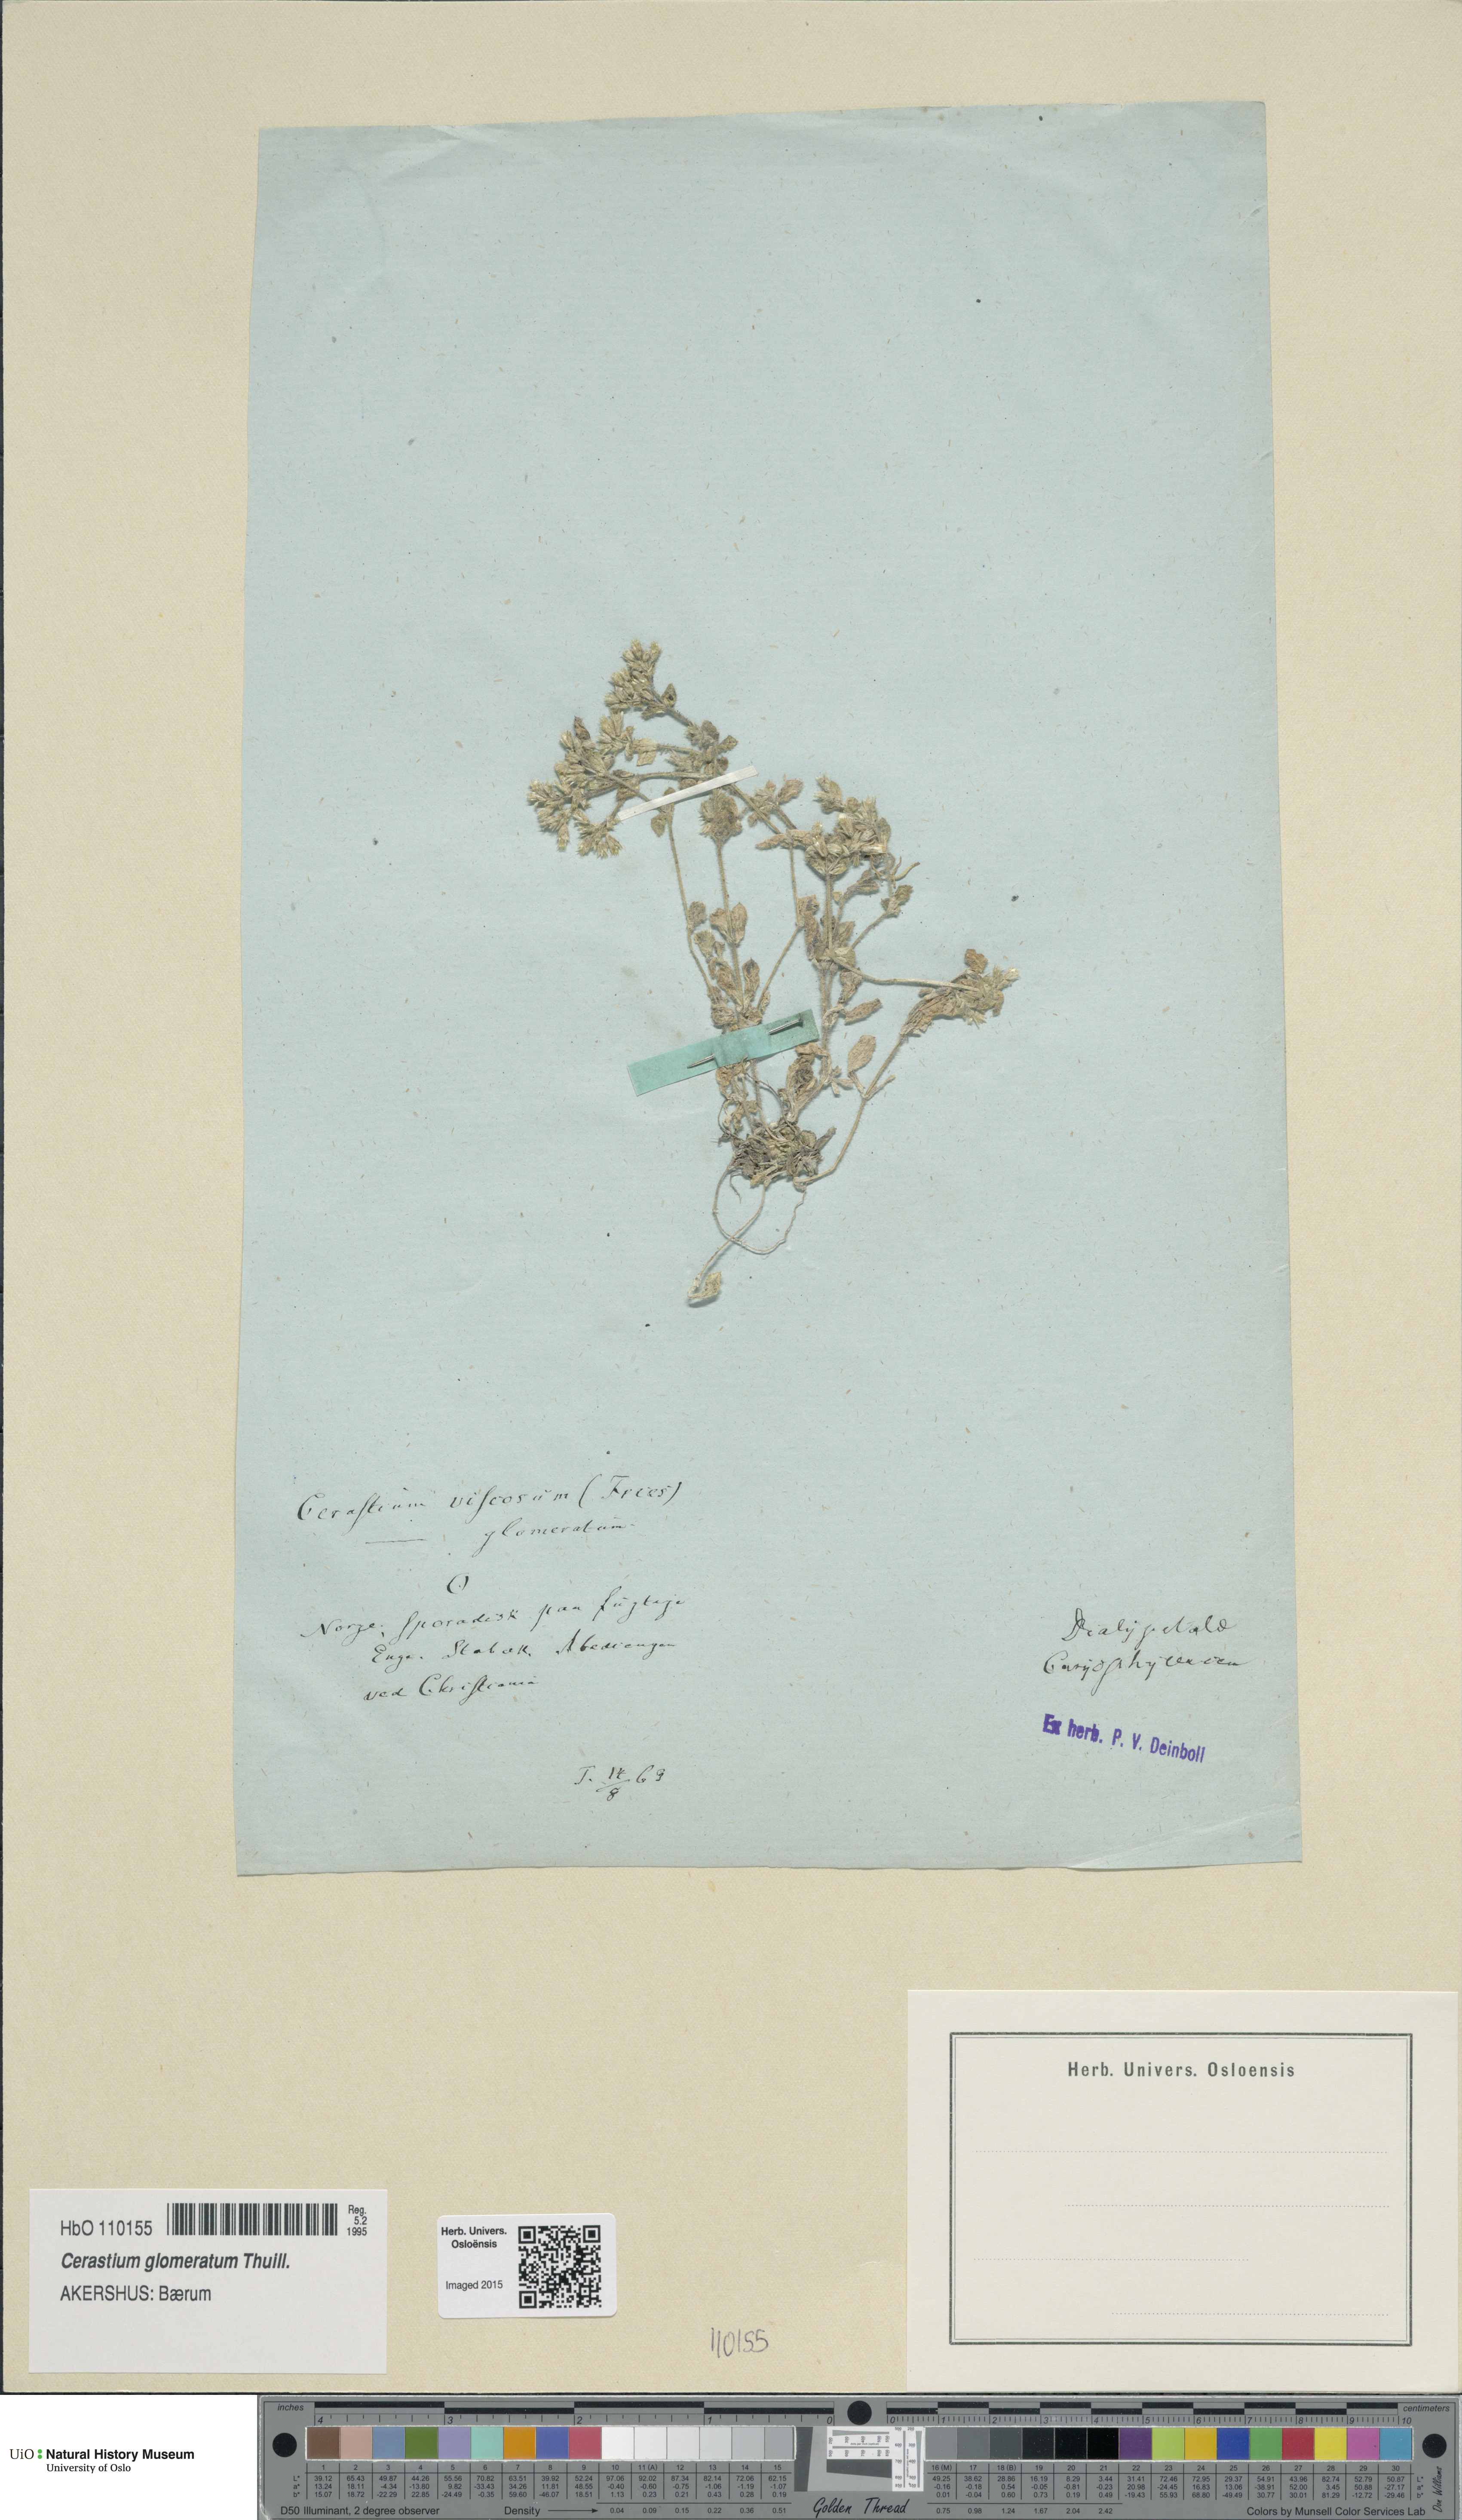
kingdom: Plantae
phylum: Tracheophyta
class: Magnoliopsida
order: Caryophyllales
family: Caryophyllaceae
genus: Cerastium
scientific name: Cerastium glomeratum
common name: Sticky chickweed
